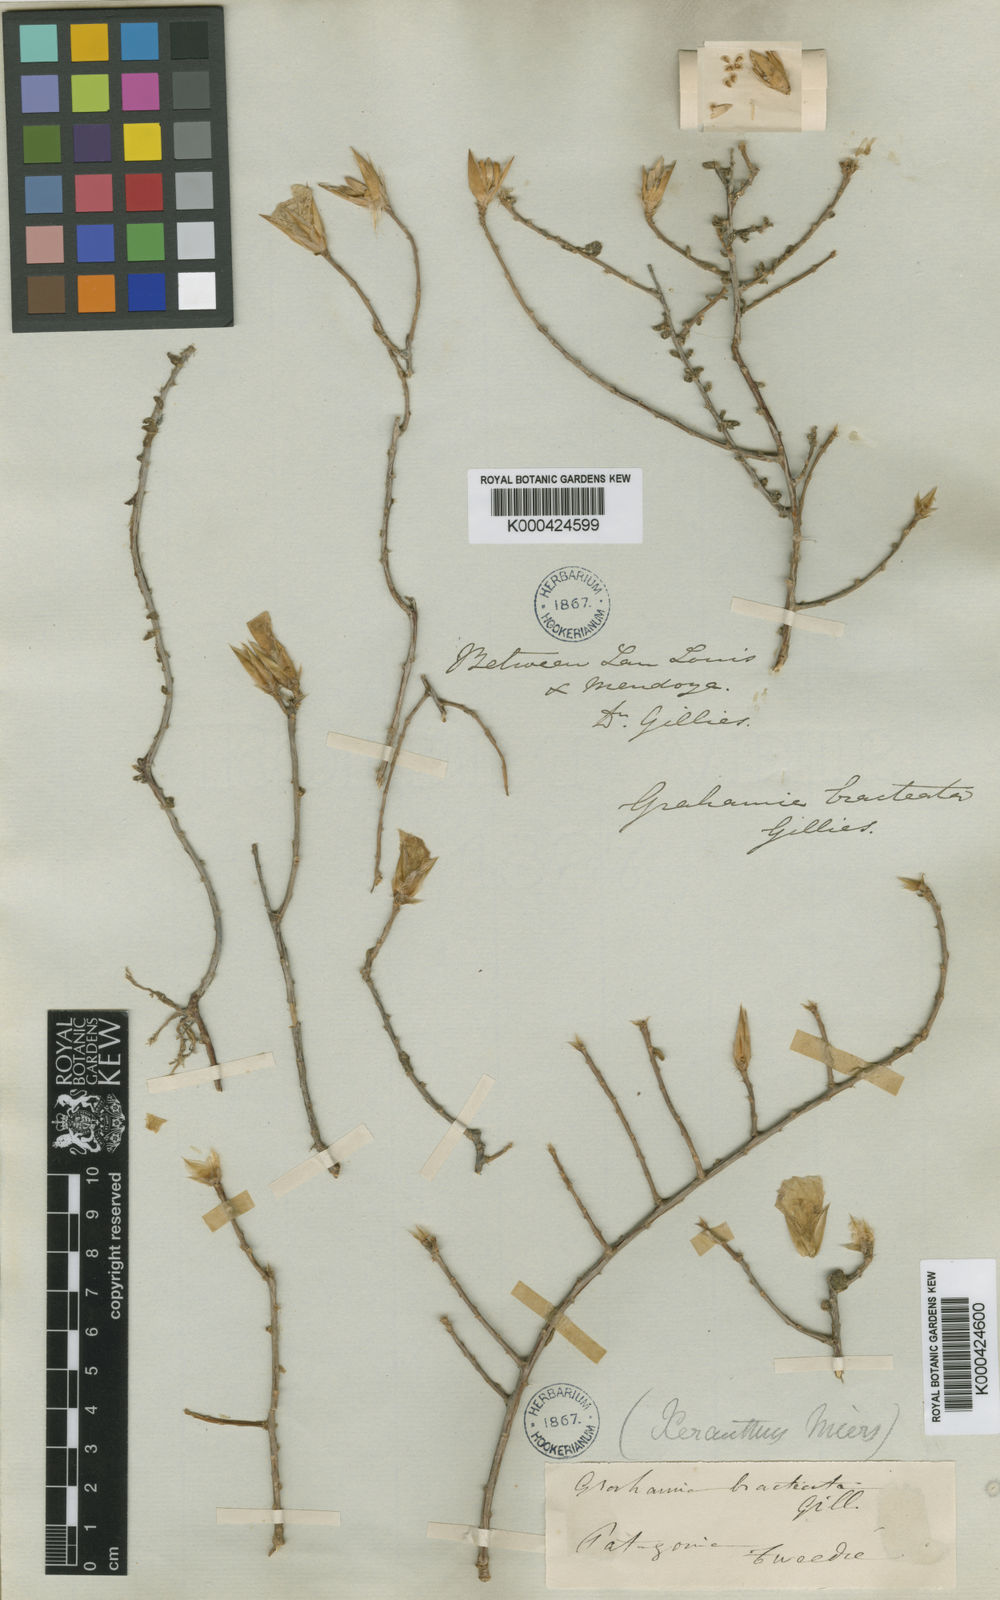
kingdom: Plantae
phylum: Tracheophyta
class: Magnoliopsida
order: Caryophyllales
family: Anacampserotaceae
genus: Grahamia
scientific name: Grahamia bracteata
